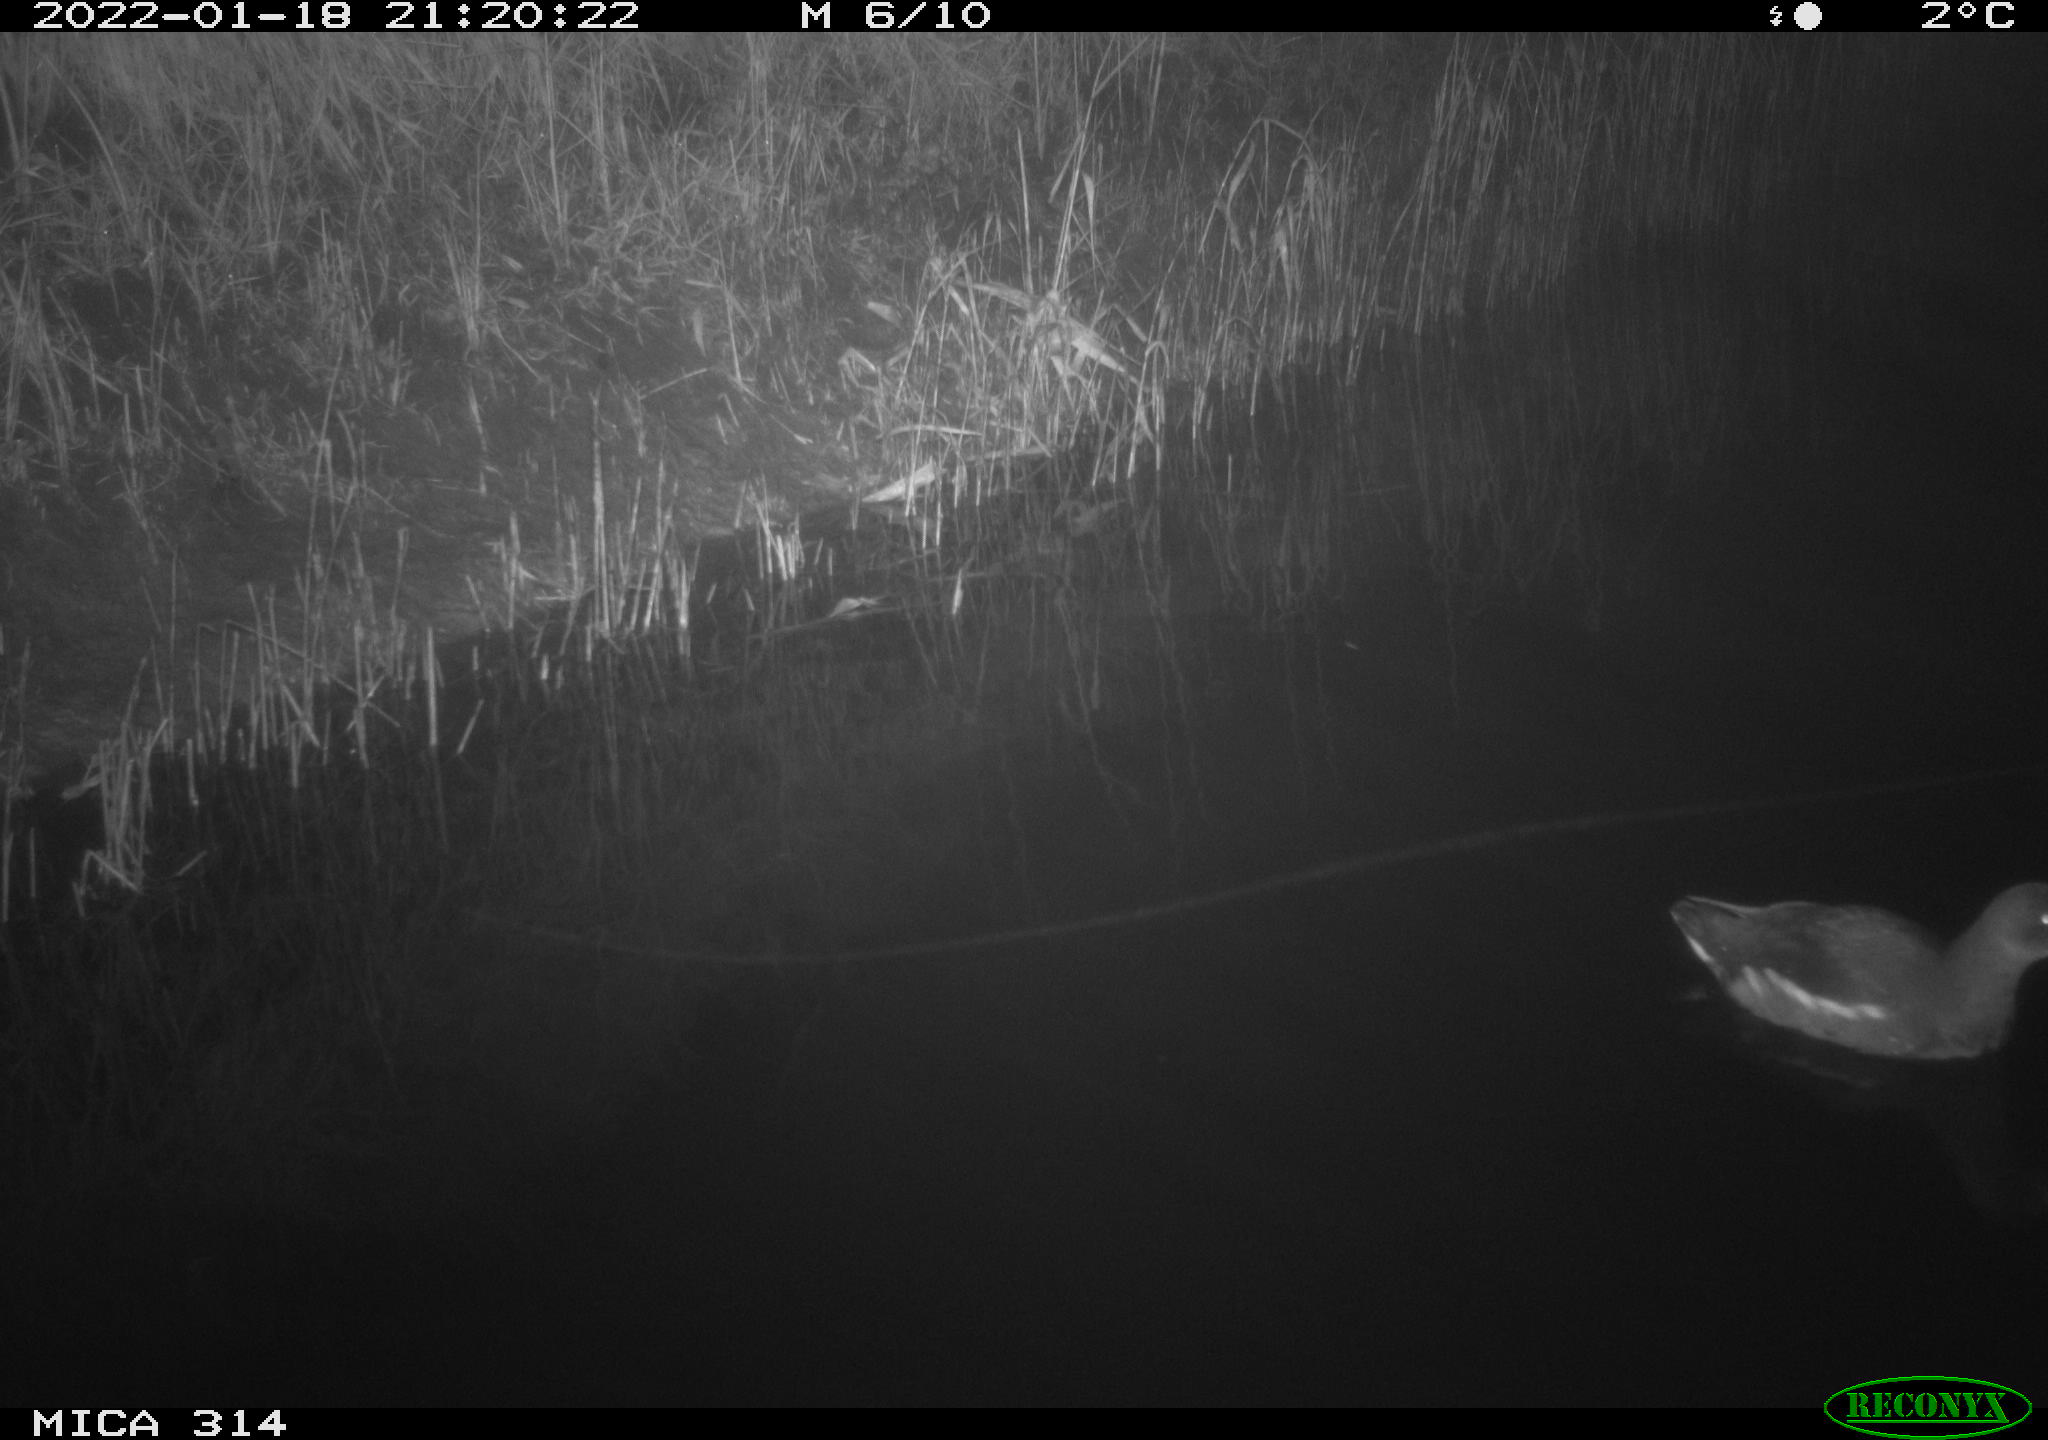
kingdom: Animalia
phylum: Chordata
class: Aves
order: Gruiformes
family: Rallidae
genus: Gallinula
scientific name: Gallinula chloropus
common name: Common moorhen
